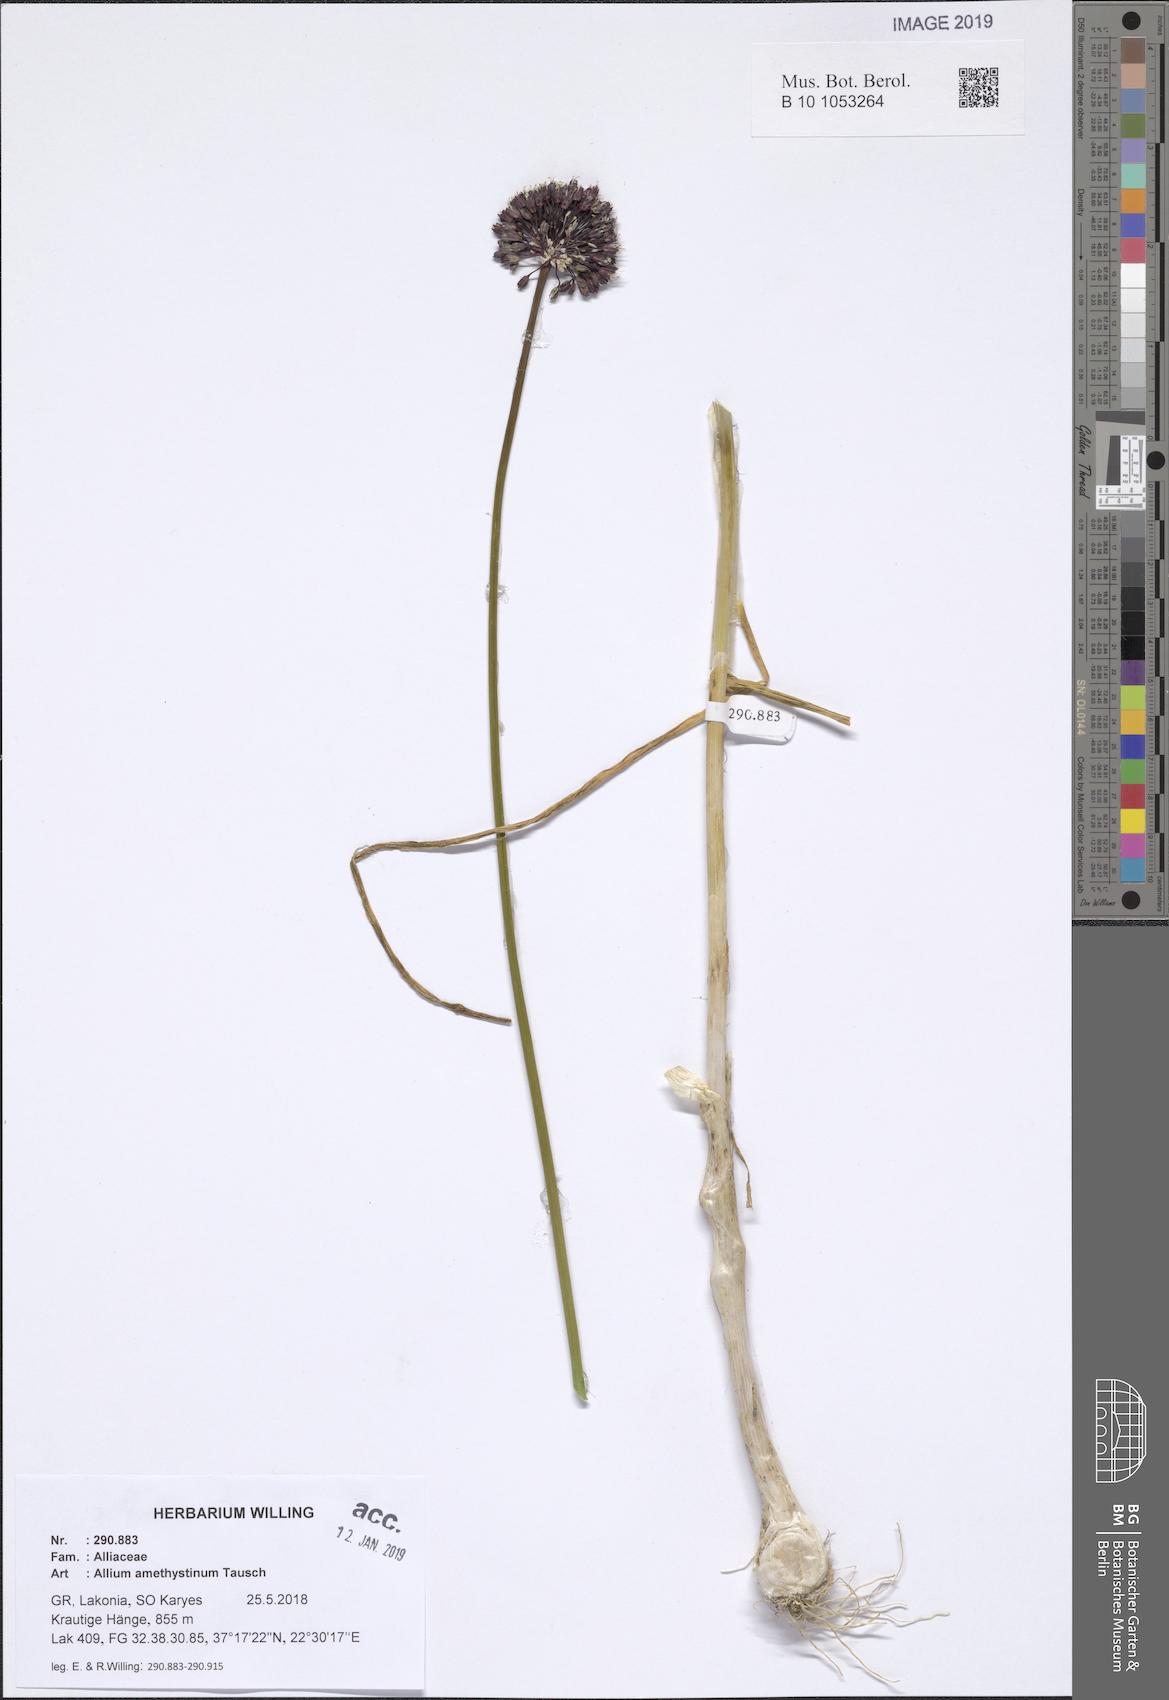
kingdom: Plantae
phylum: Tracheophyta
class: Liliopsida
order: Asparagales
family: Amaryllidaceae
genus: Allium
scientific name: Allium amethystinum
